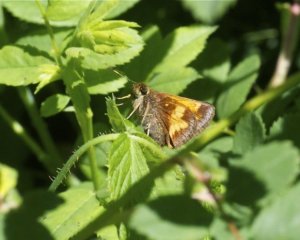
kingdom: Animalia
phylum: Arthropoda
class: Insecta
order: Lepidoptera
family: Hesperiidae
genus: Lon
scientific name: Lon hobomok
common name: Hobomok Skipper
